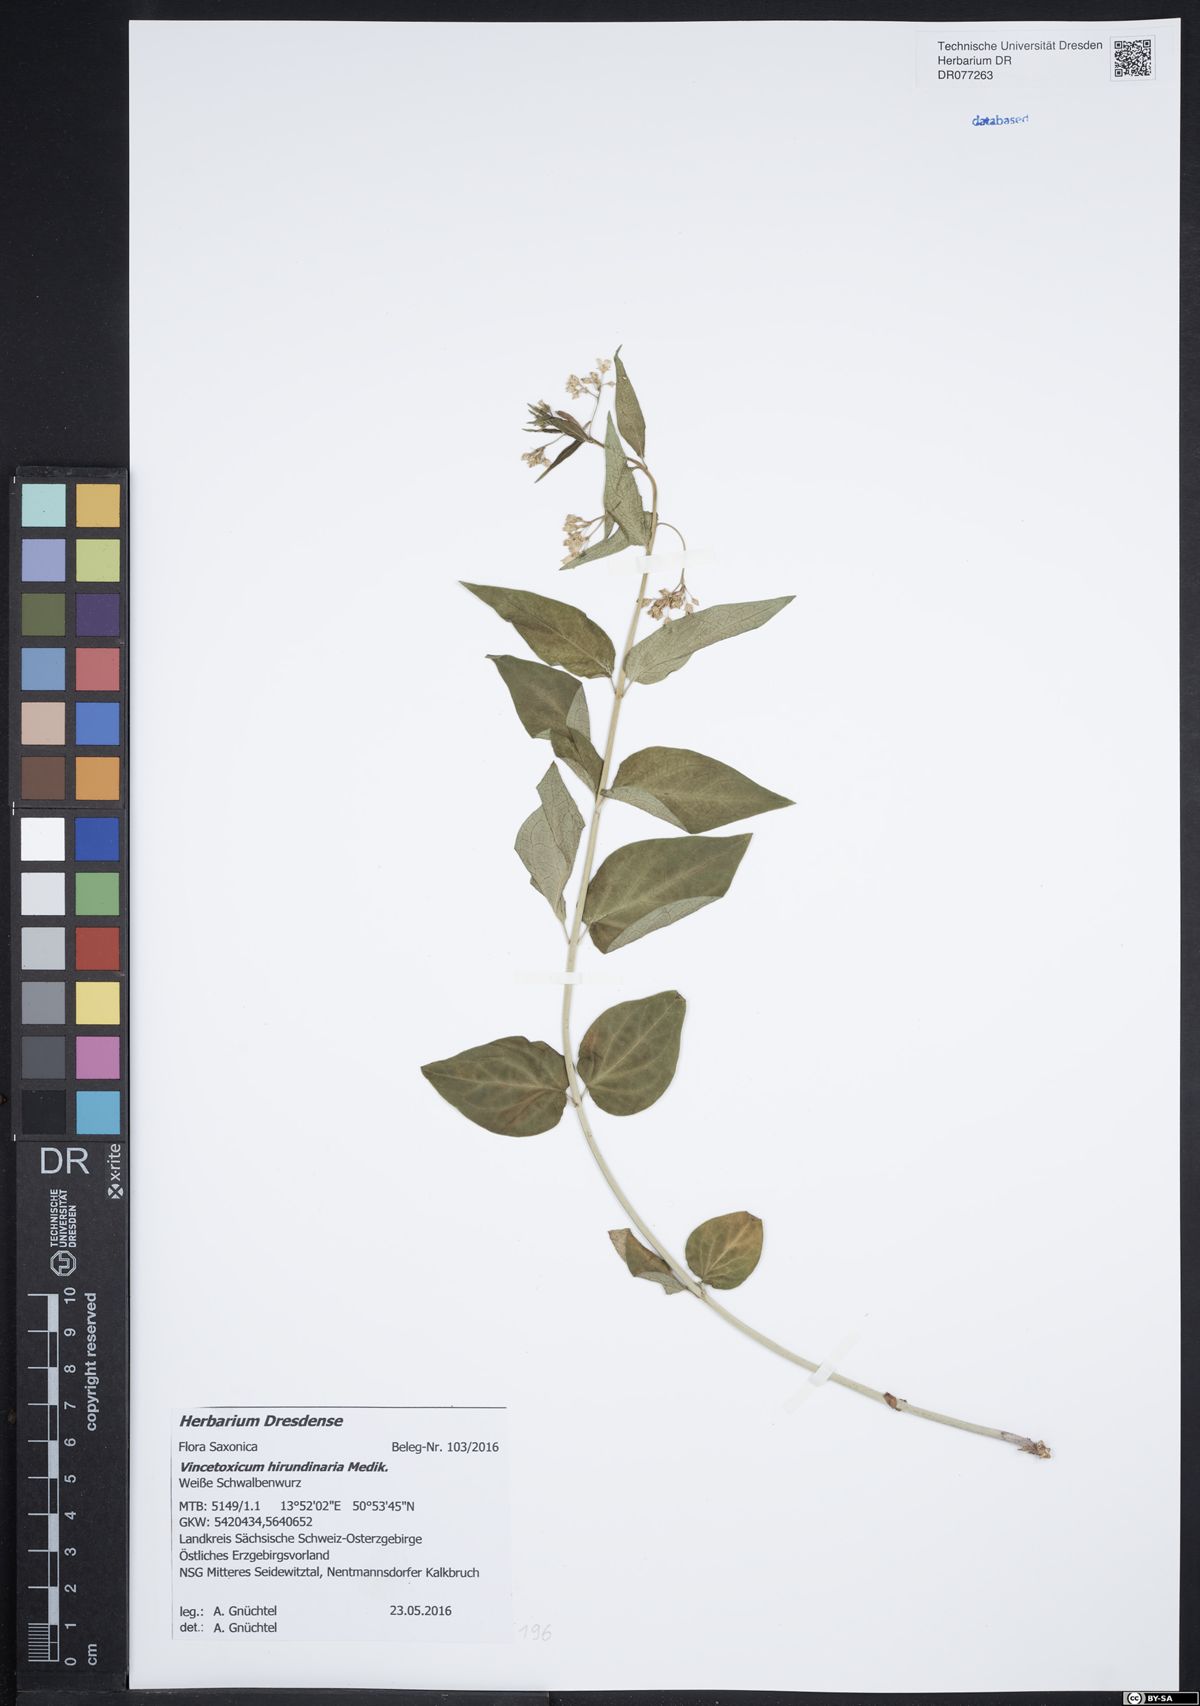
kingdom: Plantae
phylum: Tracheophyta
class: Magnoliopsida
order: Gentianales
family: Apocynaceae
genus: Vincetoxicum
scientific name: Vincetoxicum hirundinaria
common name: White swallowwort
